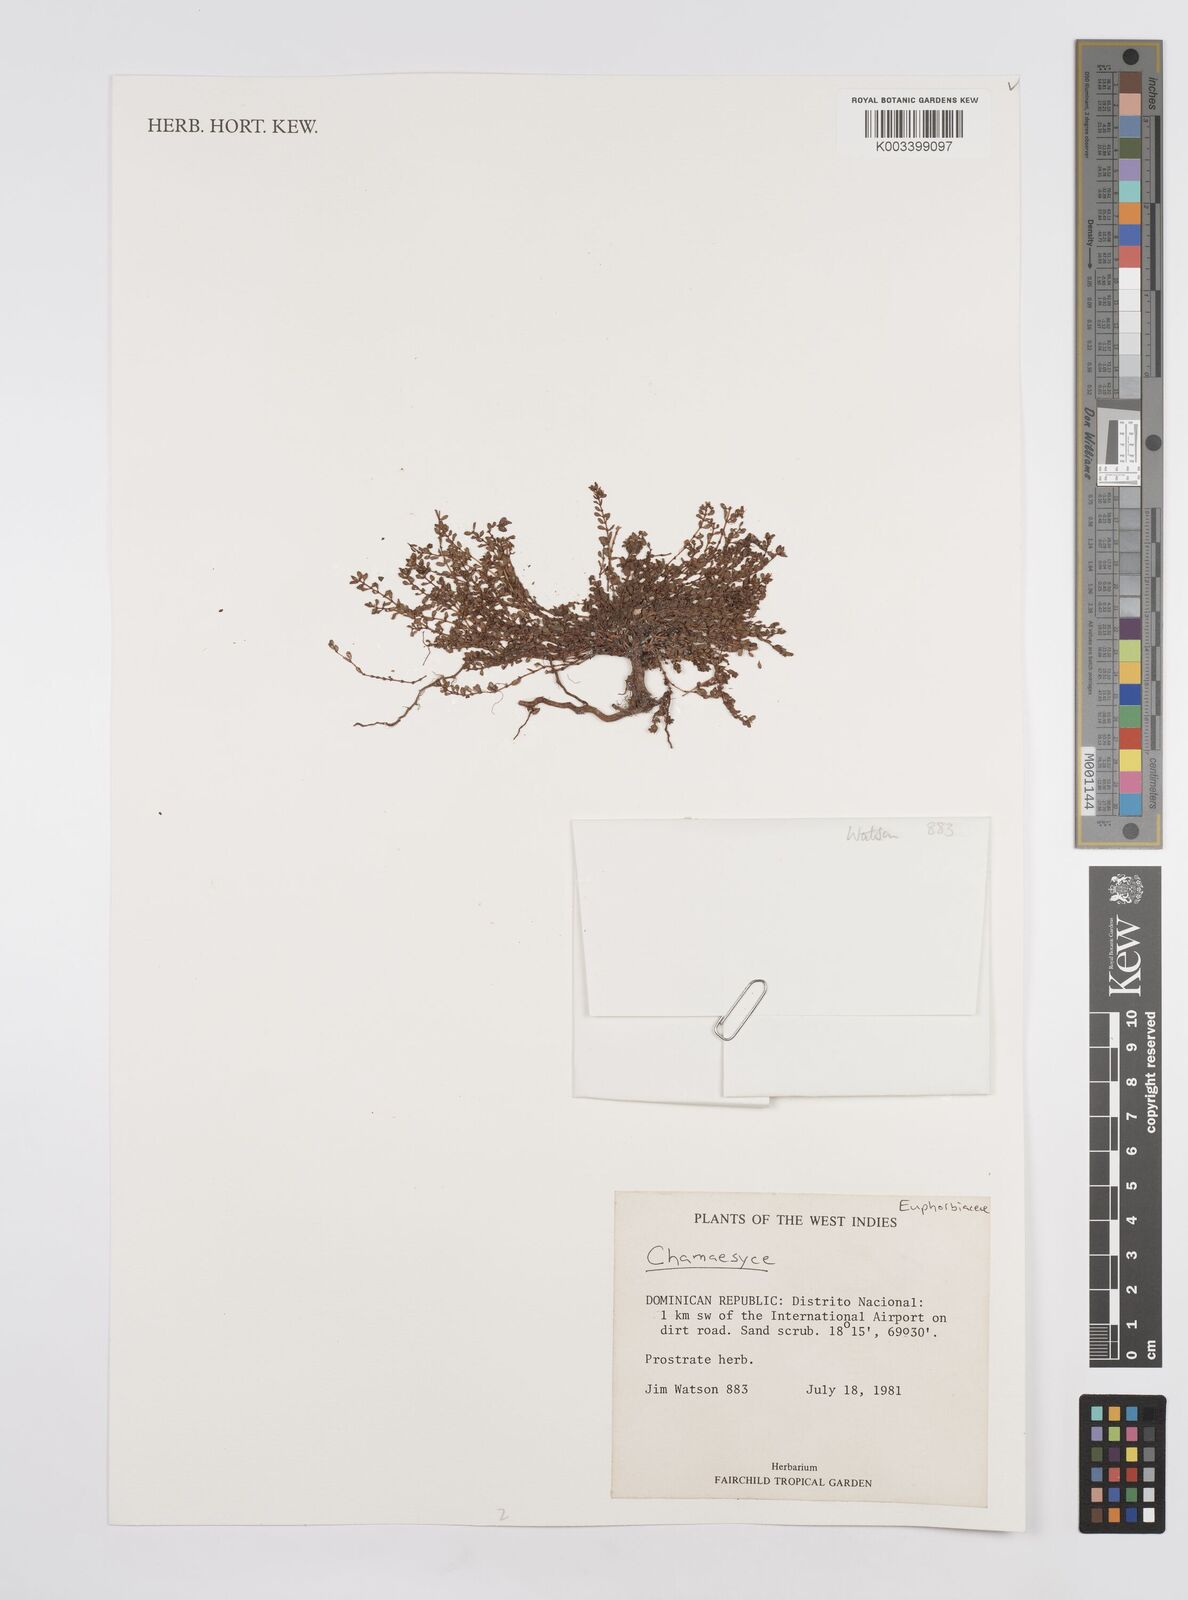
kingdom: Plantae
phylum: Tracheophyta
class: Magnoliopsida
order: Malpighiales
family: Euphorbiaceae
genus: Euphorbia
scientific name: Euphorbia
